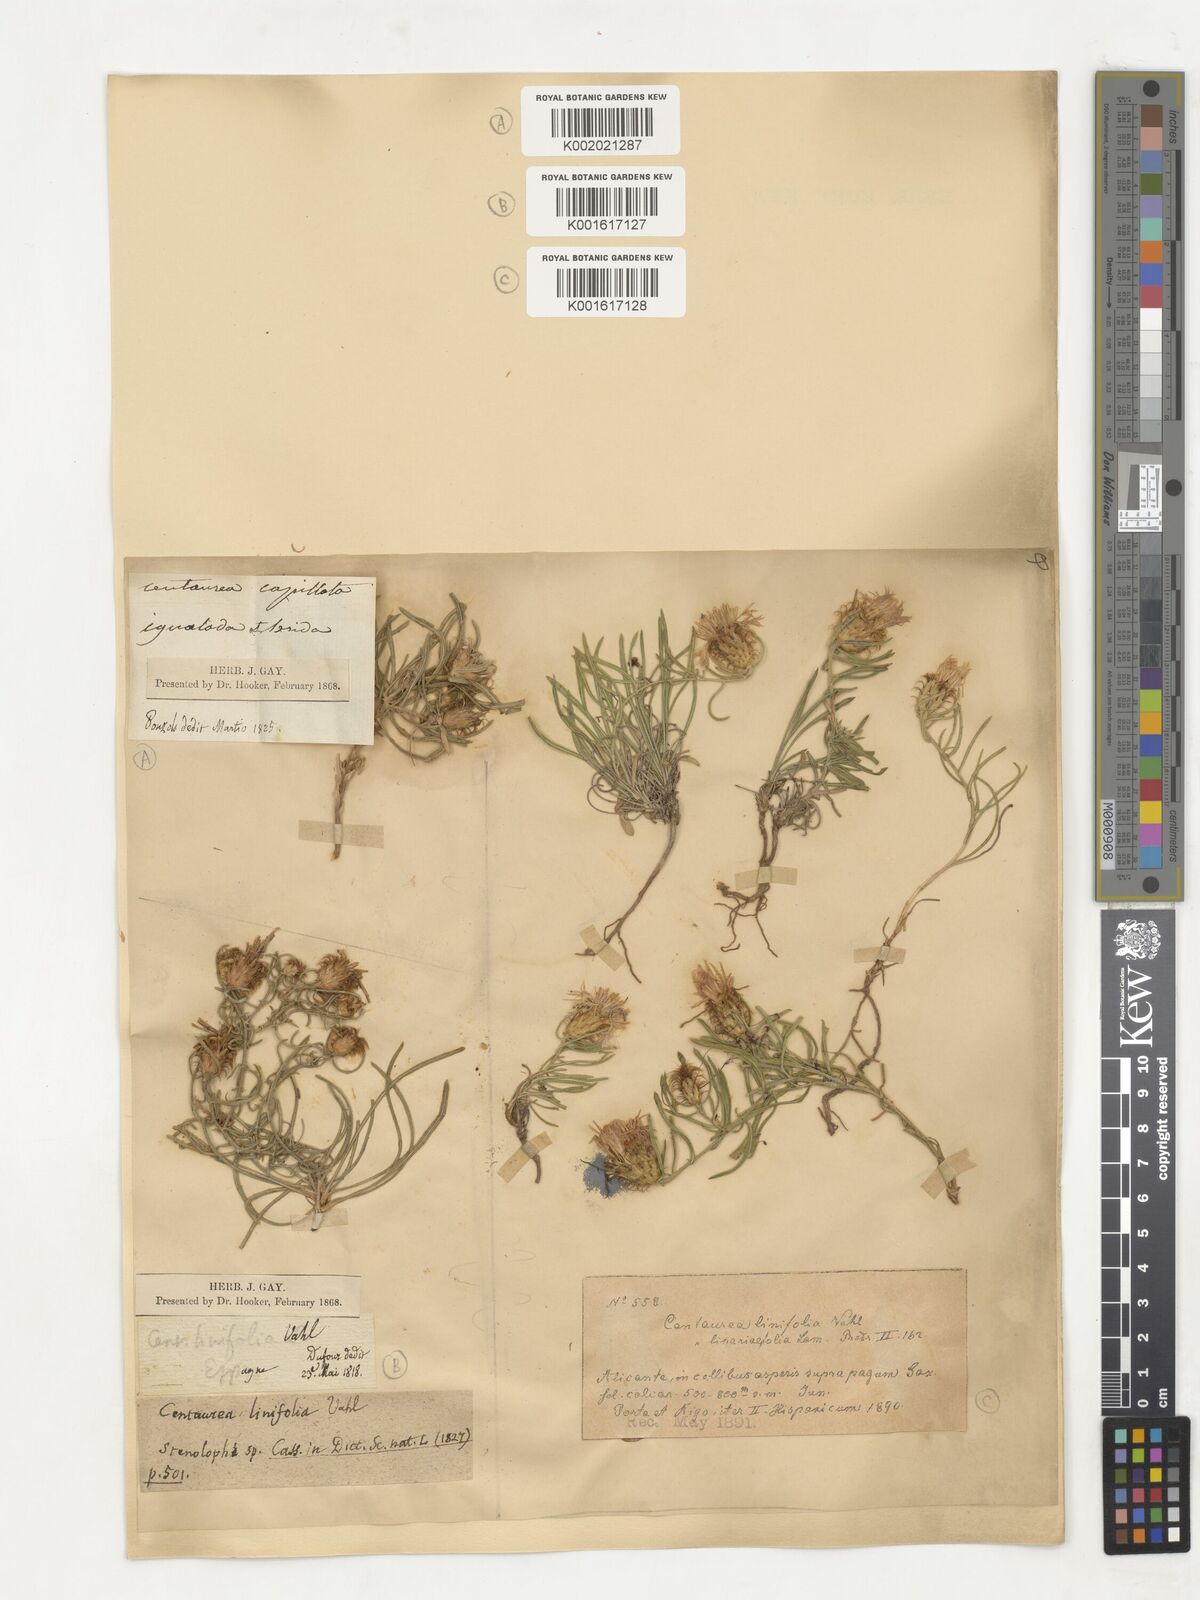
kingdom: Plantae
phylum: Tracheophyta
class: Magnoliopsida
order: Asterales
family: Asteraceae
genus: Centaurea
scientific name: Centaurea linifolia
